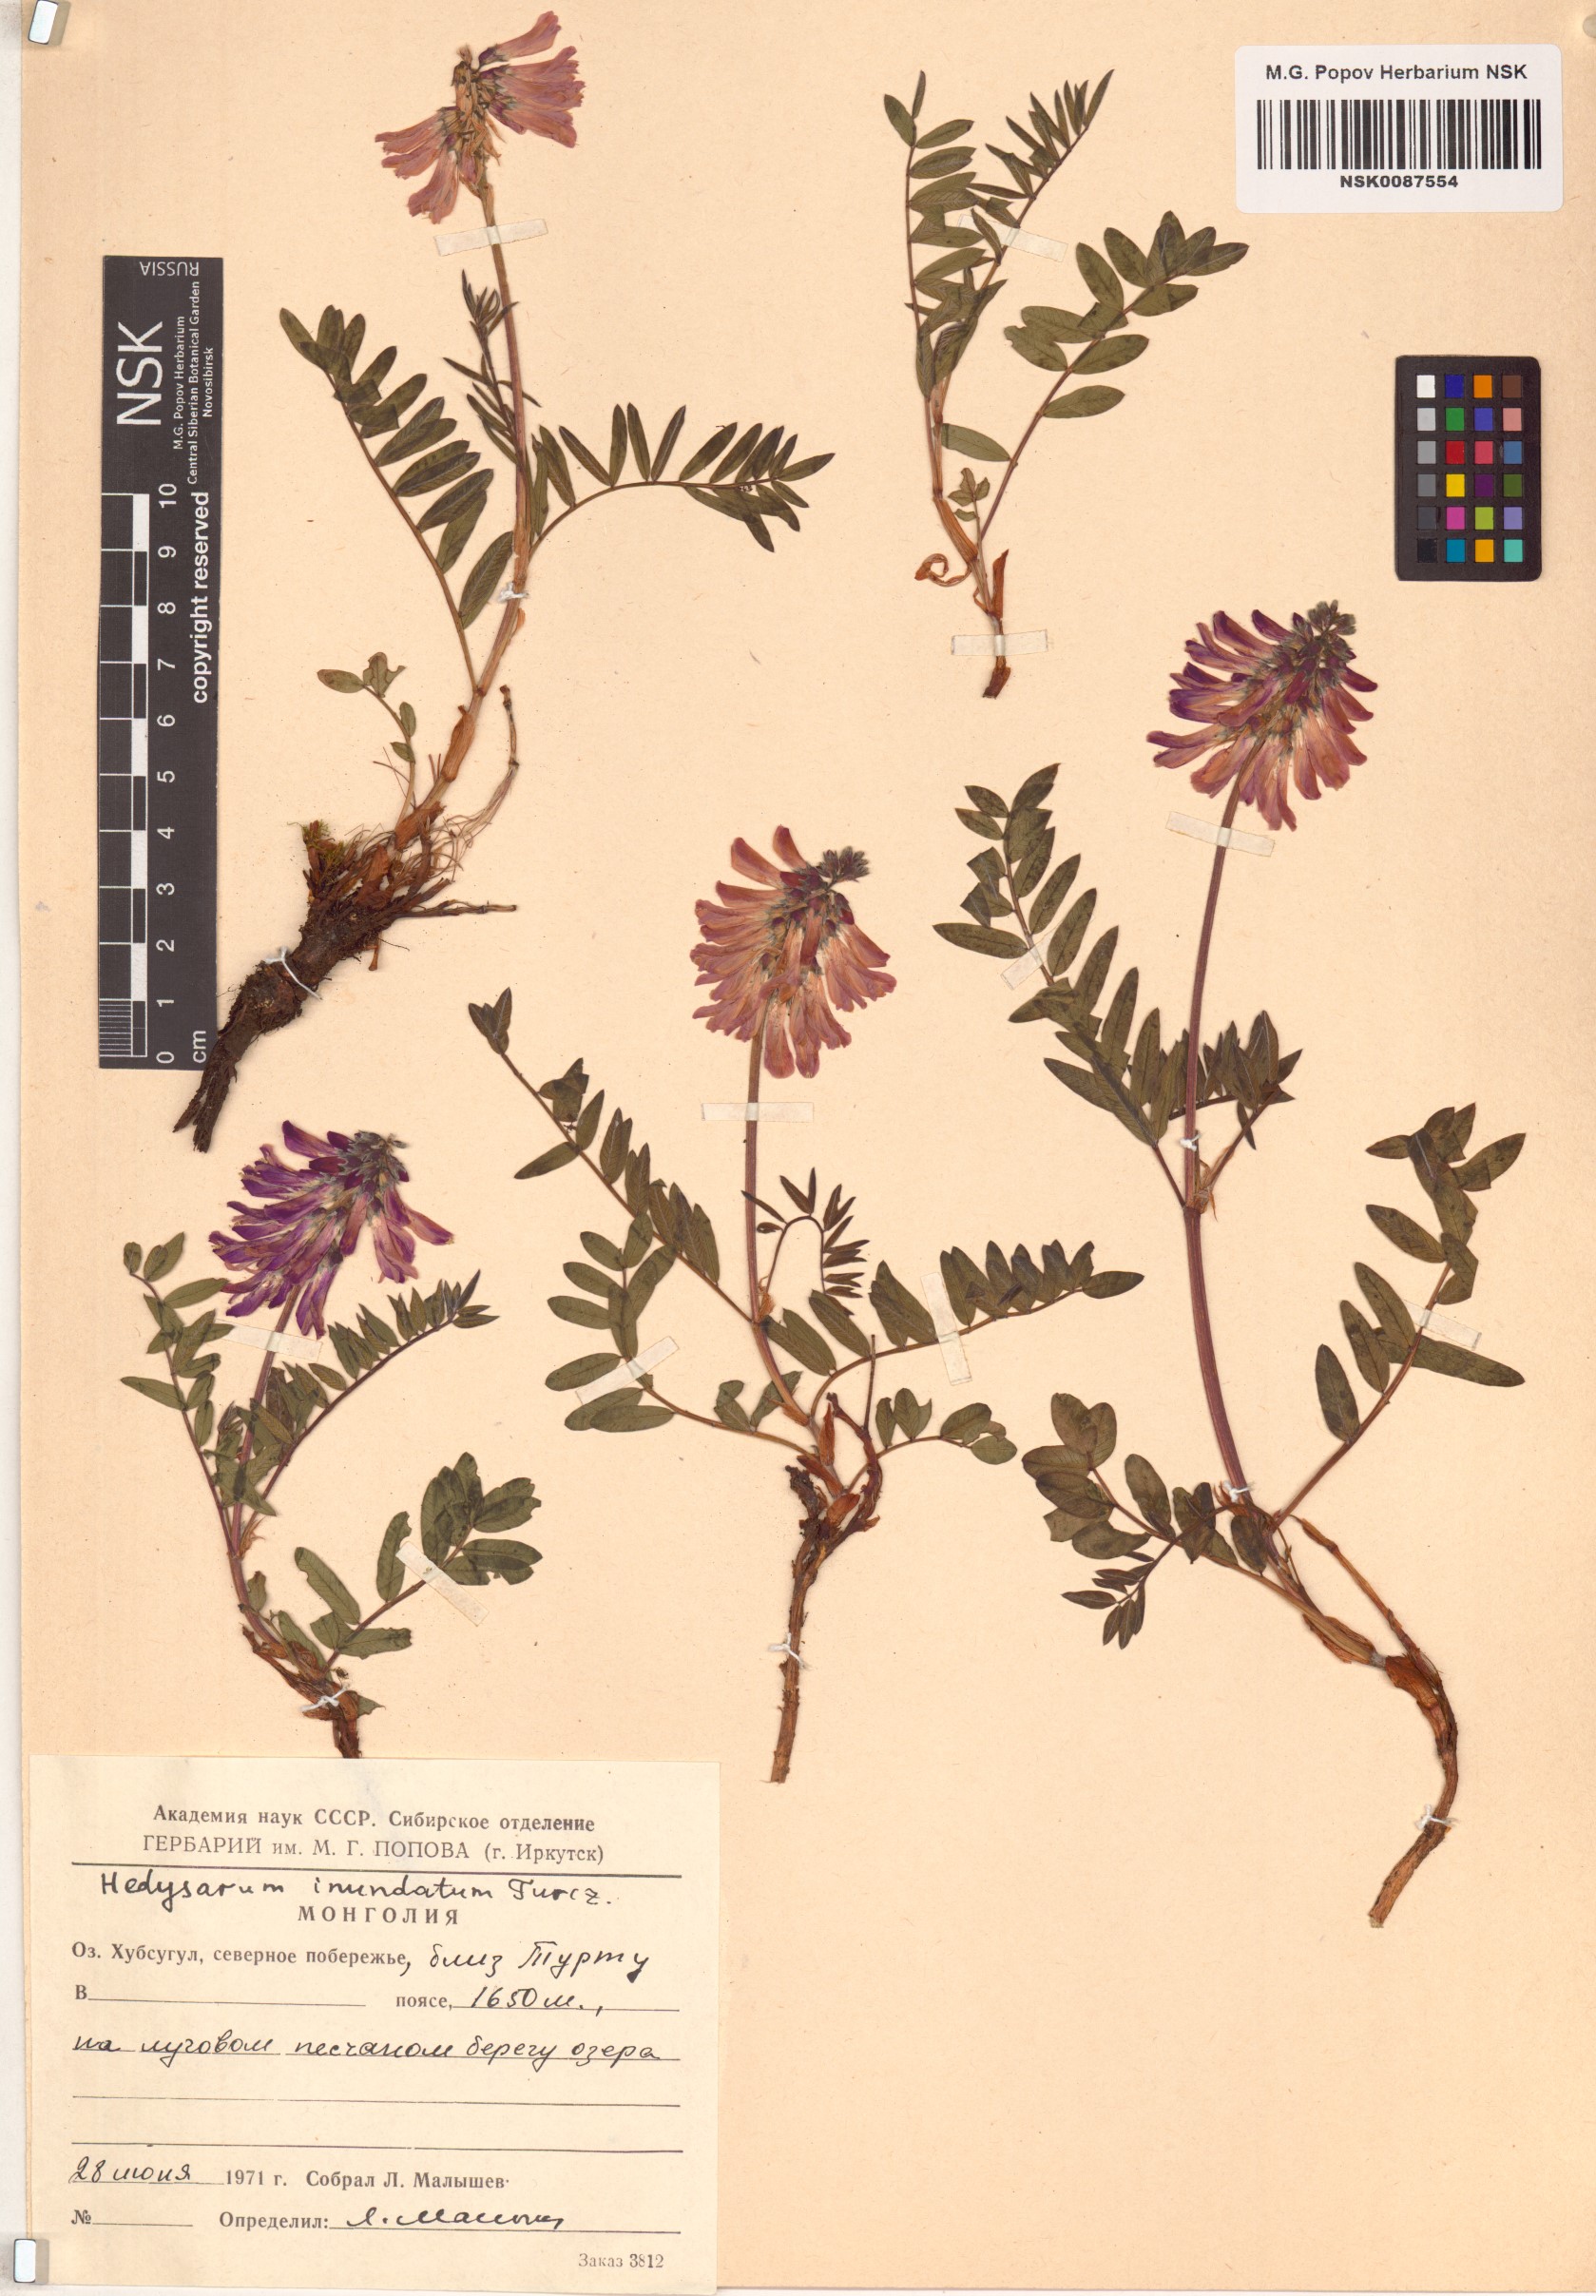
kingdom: Plantae
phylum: Tracheophyta
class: Magnoliopsida
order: Fabales
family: Fabaceae
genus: Hedysarum
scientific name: Hedysarum inundatum
